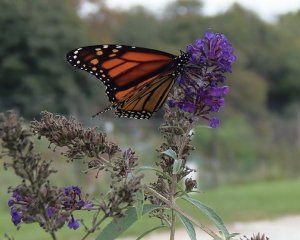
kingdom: Animalia
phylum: Arthropoda
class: Insecta
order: Lepidoptera
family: Nymphalidae
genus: Danaus
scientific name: Danaus plexippus
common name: Monarch
